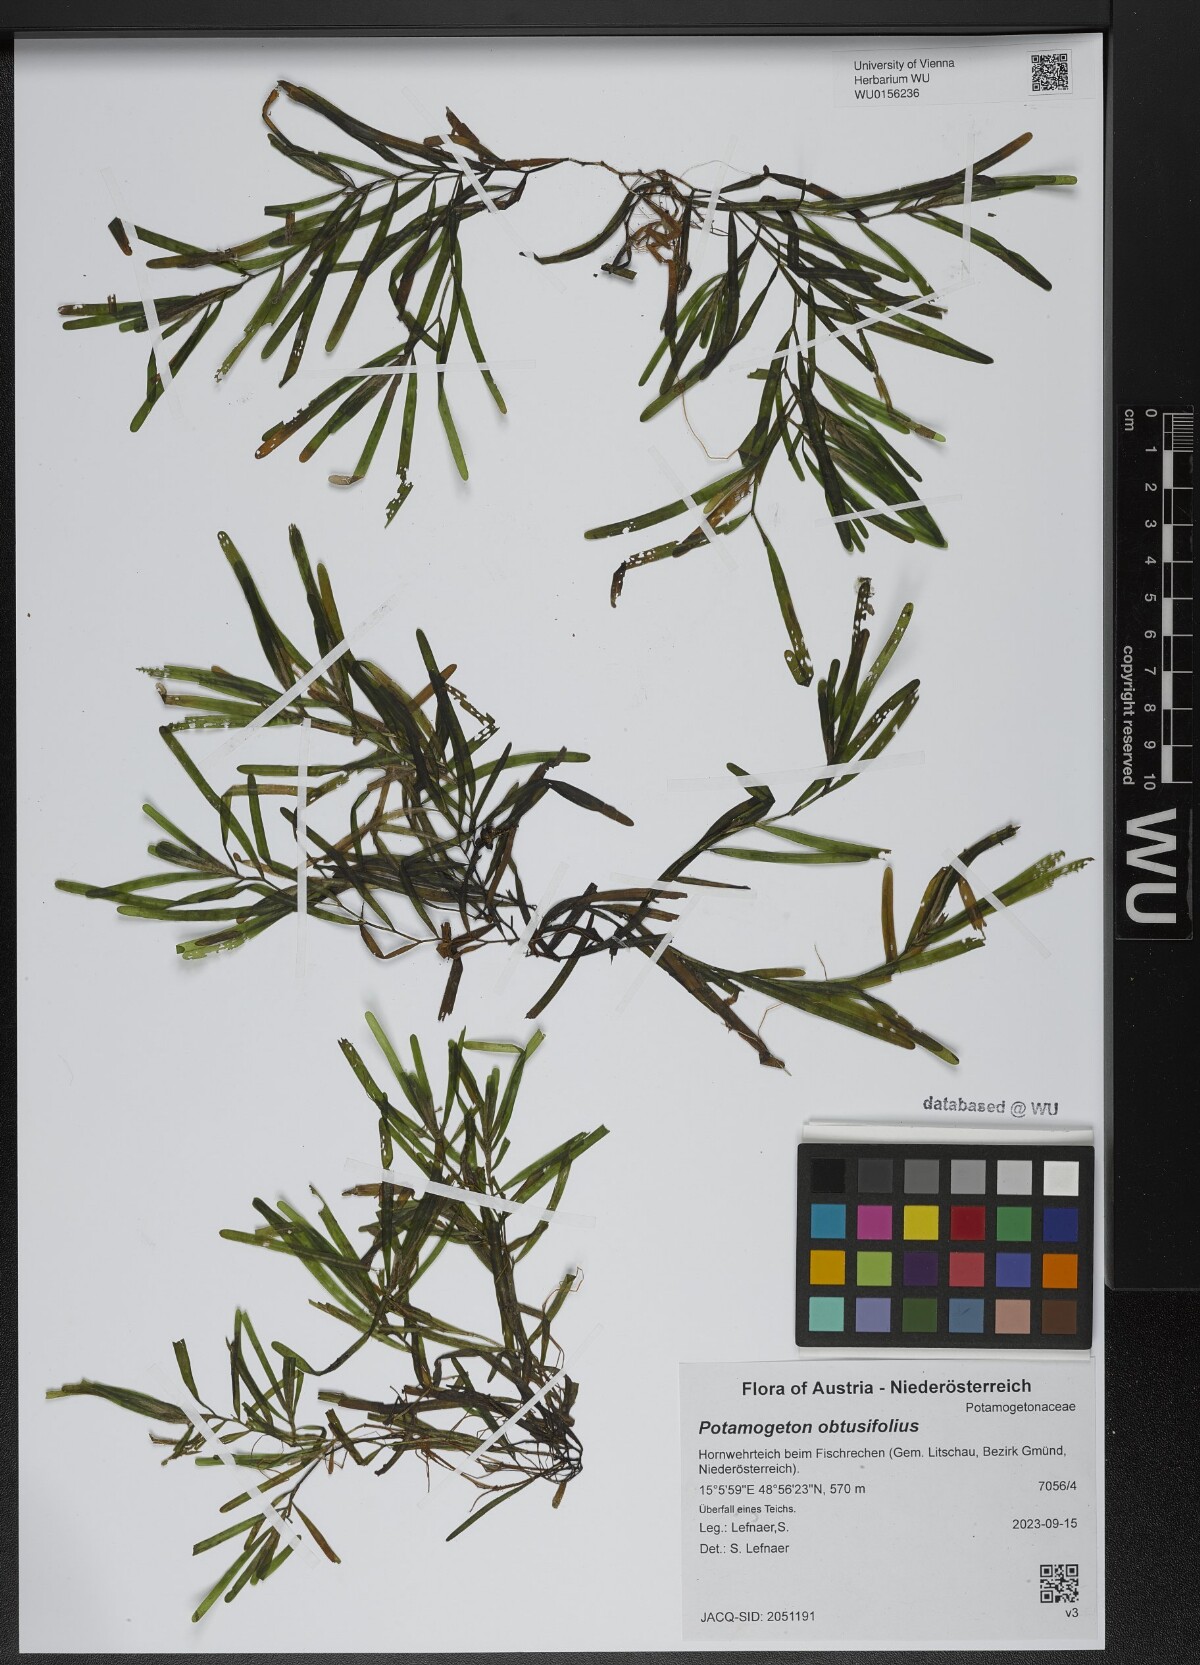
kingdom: Plantae
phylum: Tracheophyta
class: Liliopsida
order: Alismatales
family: Potamogetonaceae
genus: Potamogeton
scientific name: Potamogeton obtusifolius
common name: Blunt-leaved pondweed
